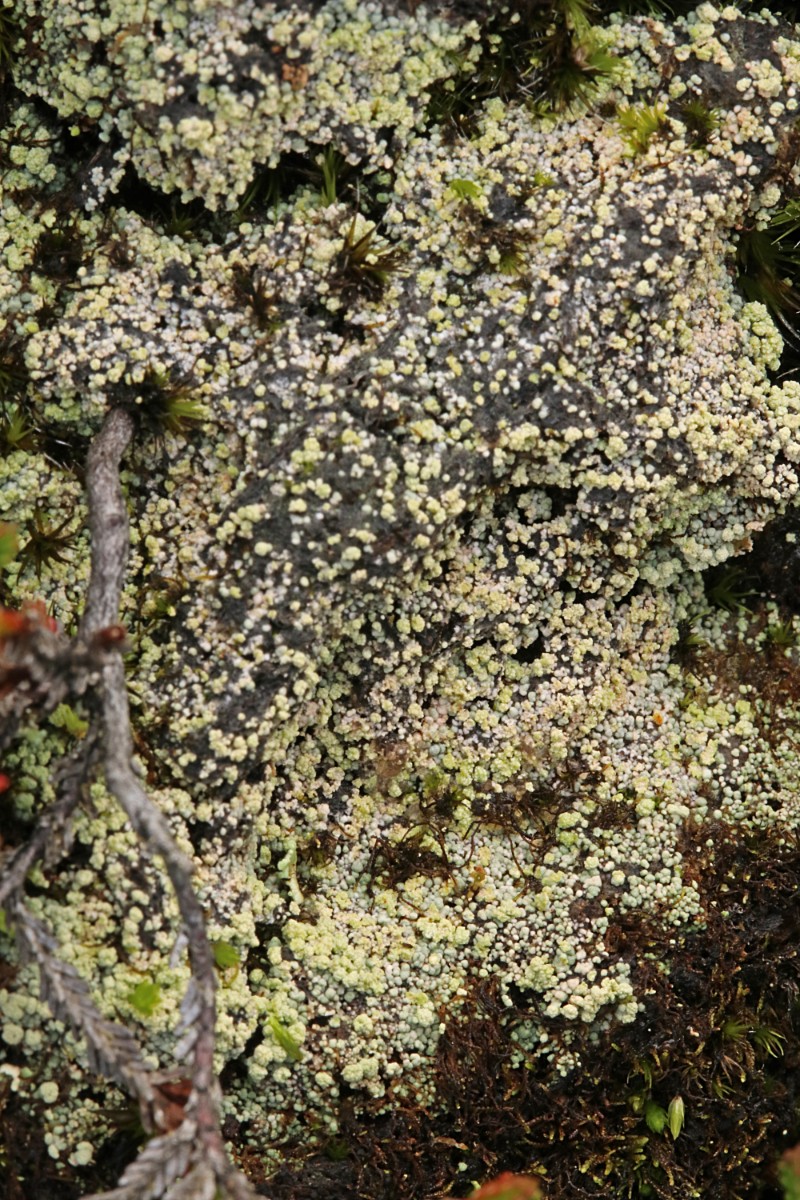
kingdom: Fungi
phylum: Ascomycota
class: Lecanoromycetes
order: Baeomycetales
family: Trapeliaceae
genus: Trapeliopsis
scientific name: Trapeliopsis granulosa
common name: forskelligfarvet skivelav
